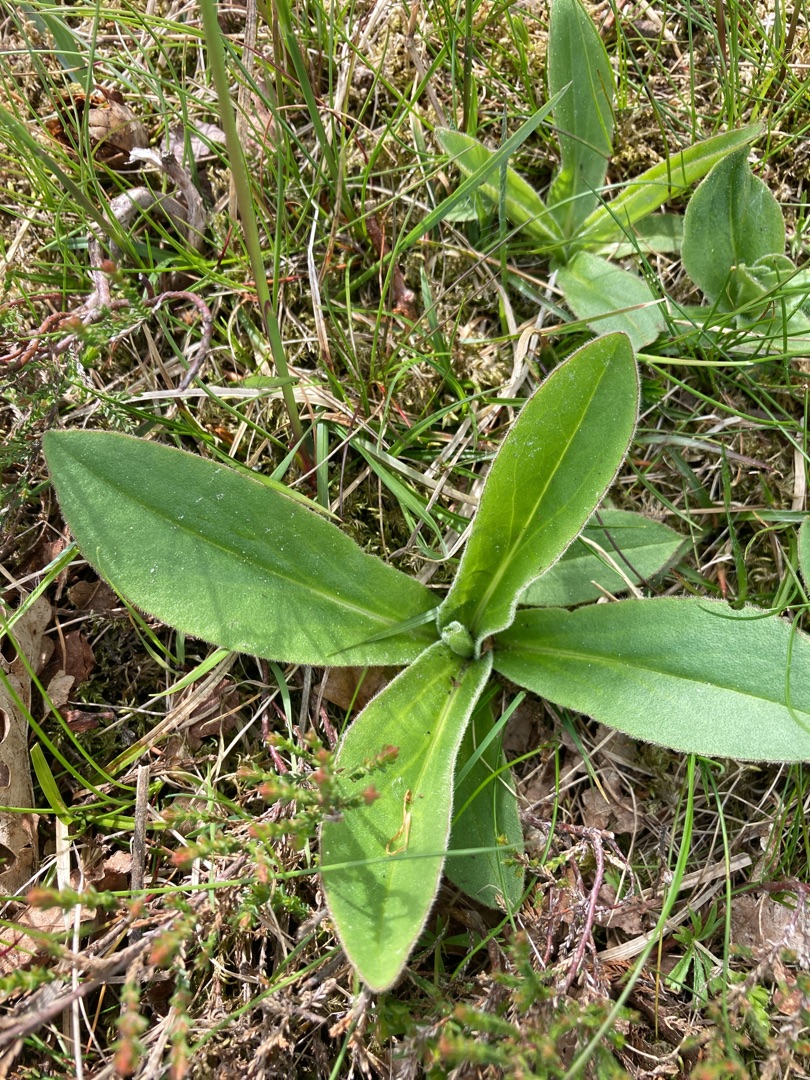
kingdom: Plantae
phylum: Tracheophyta
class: Magnoliopsida
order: Asterales
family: Asteraceae
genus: Arnica
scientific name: Arnica montana
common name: Guldblomme
